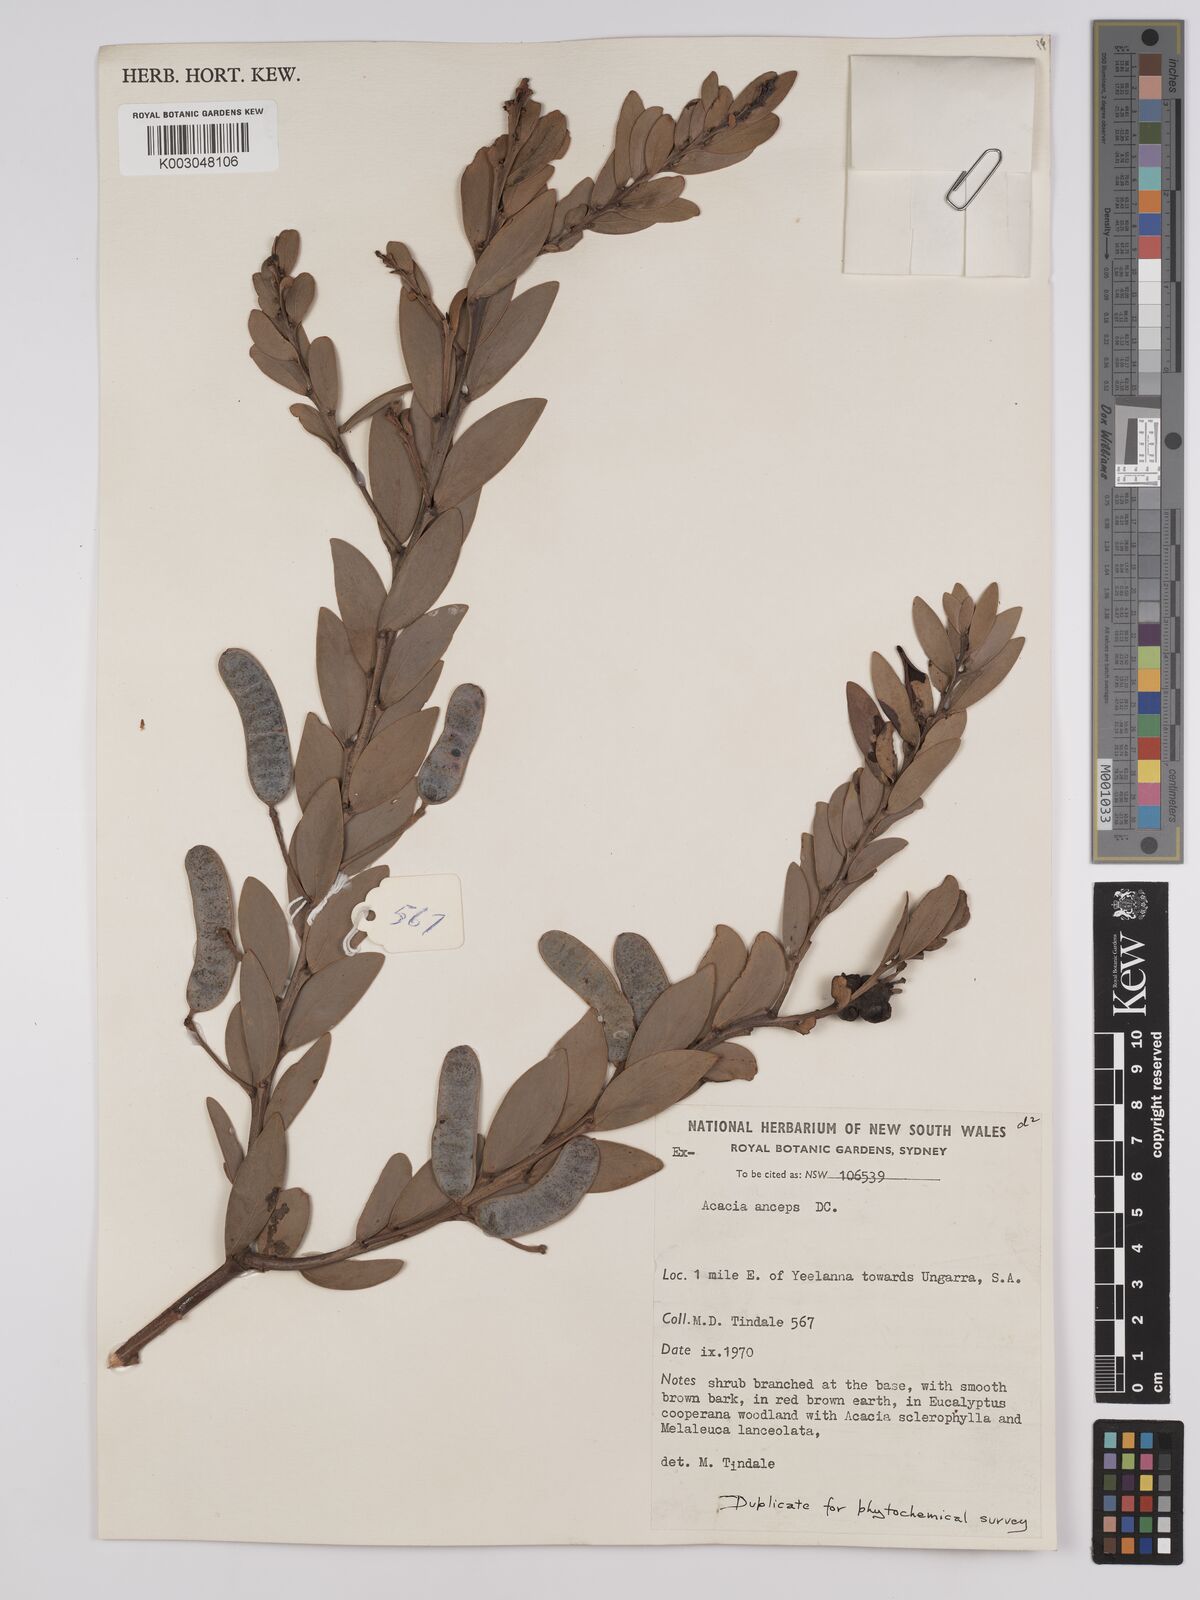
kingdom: Plantae
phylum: Tracheophyta
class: Magnoliopsida
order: Fabales
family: Fabaceae
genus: Acacia
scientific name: Acacia anceps
